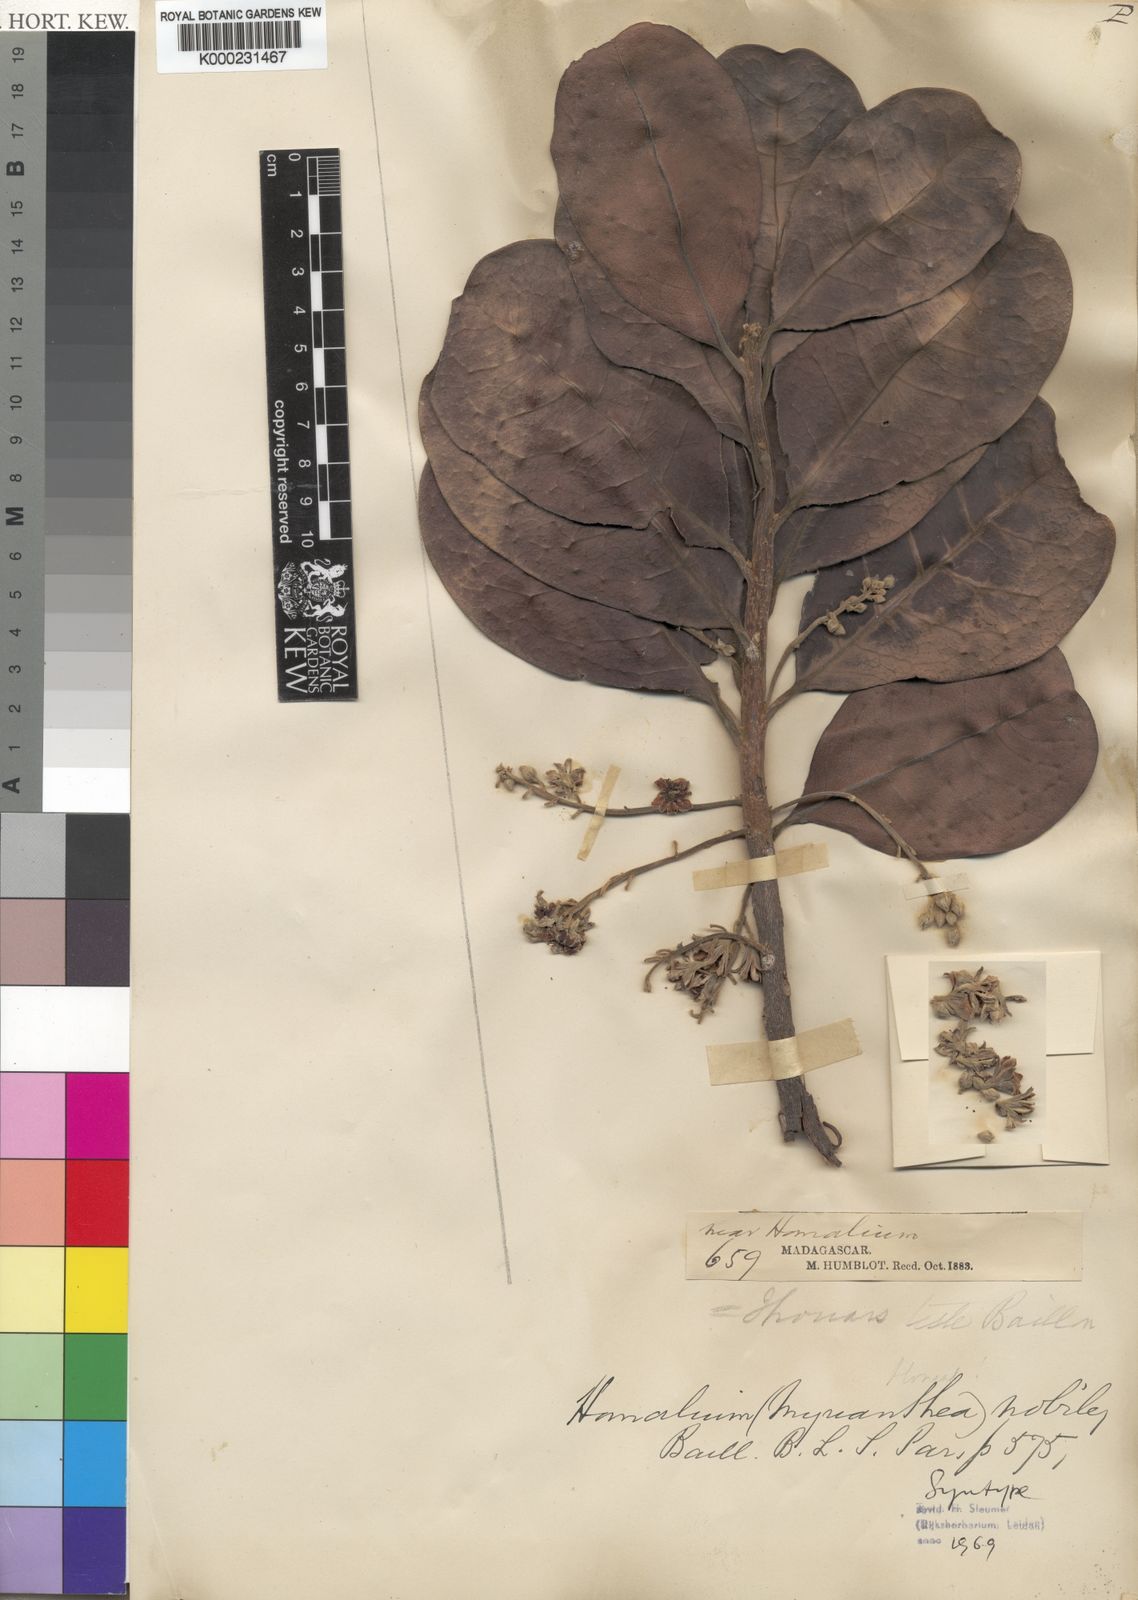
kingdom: Plantae
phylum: Tracheophyta
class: Magnoliopsida
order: Malpighiales
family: Salicaceae
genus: Homalium
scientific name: Homalium nobile
